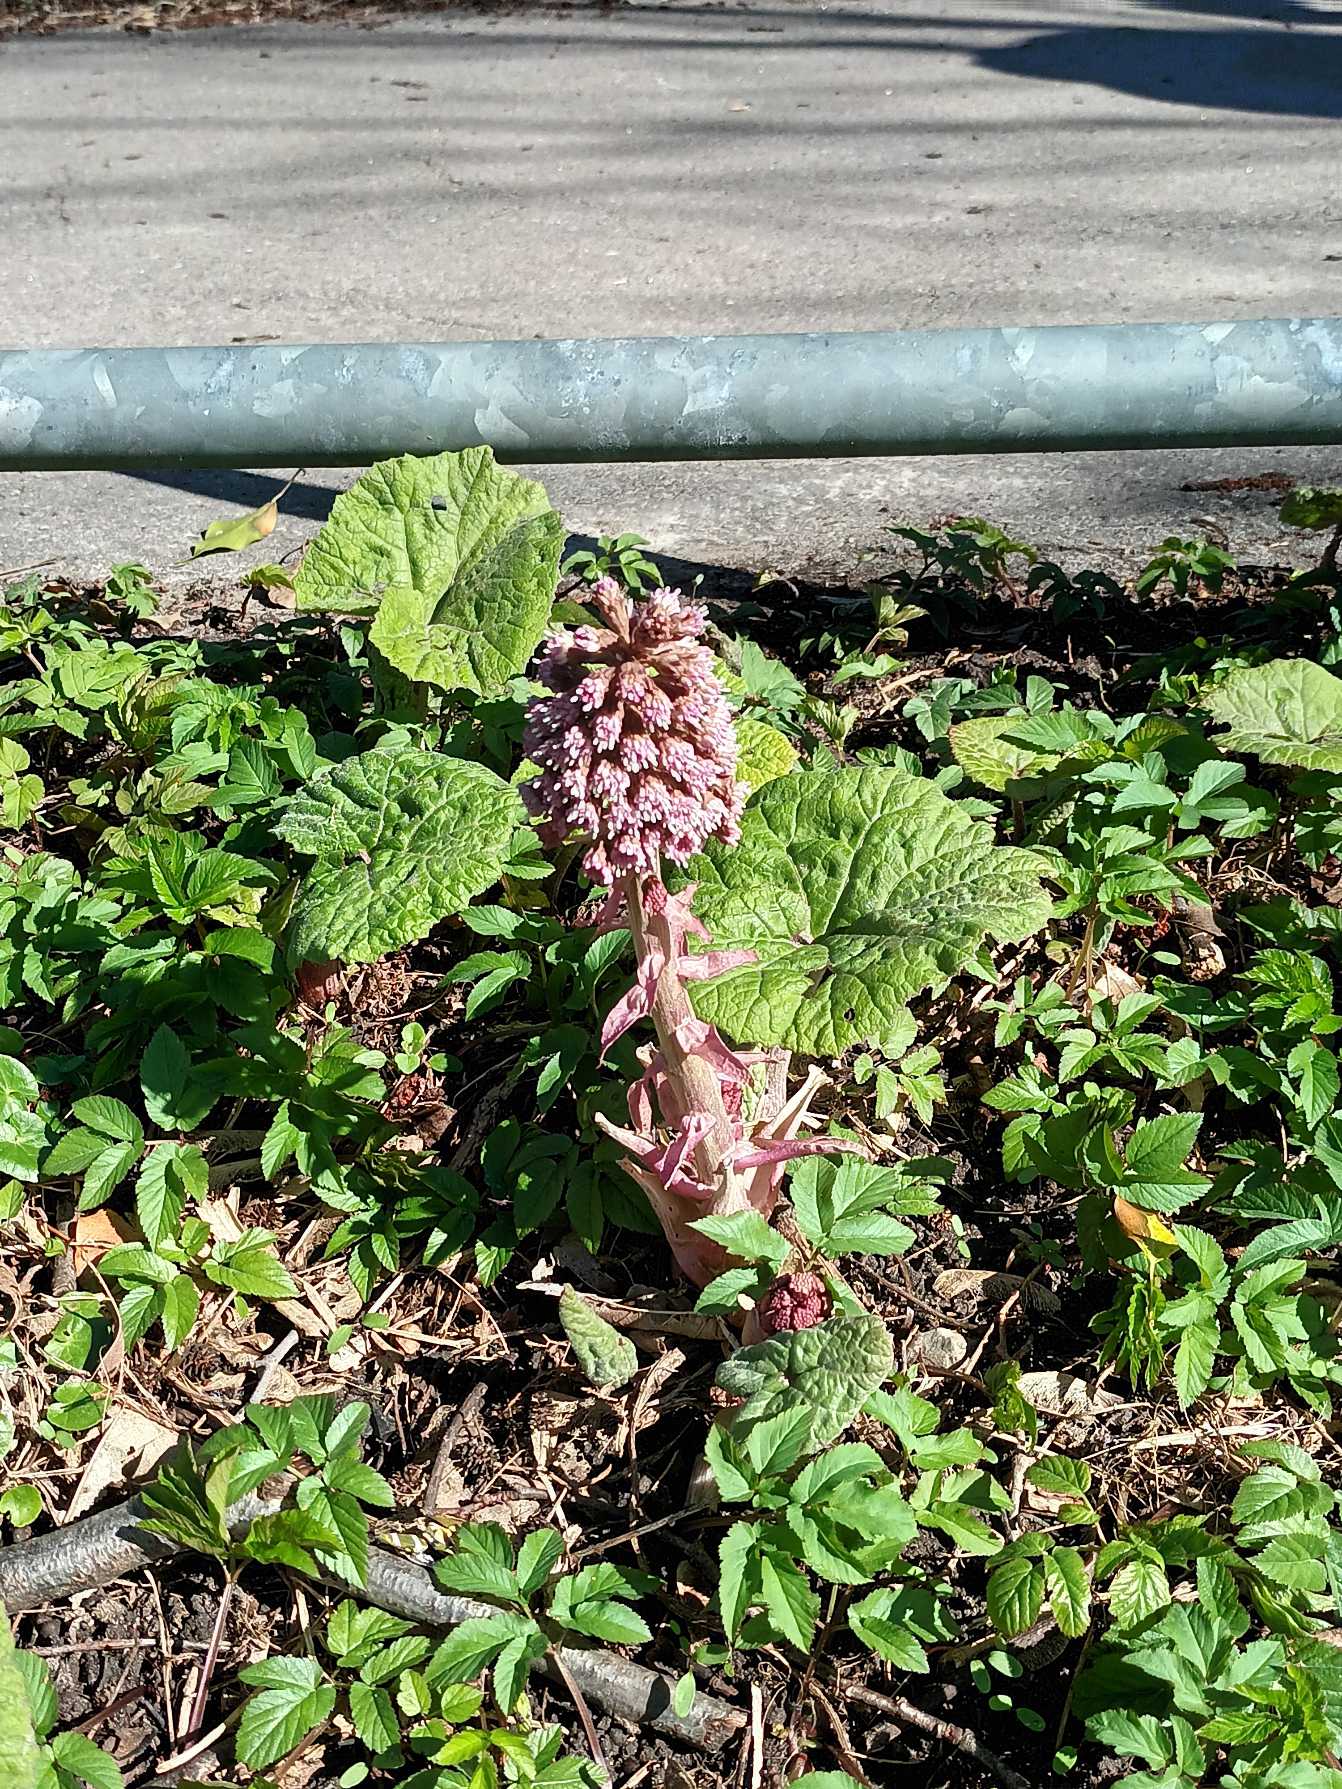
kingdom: Plantae
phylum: Tracheophyta
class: Magnoliopsida
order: Asterales
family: Asteraceae
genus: Petasites
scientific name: Petasites hybridus
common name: Rød hestehov
